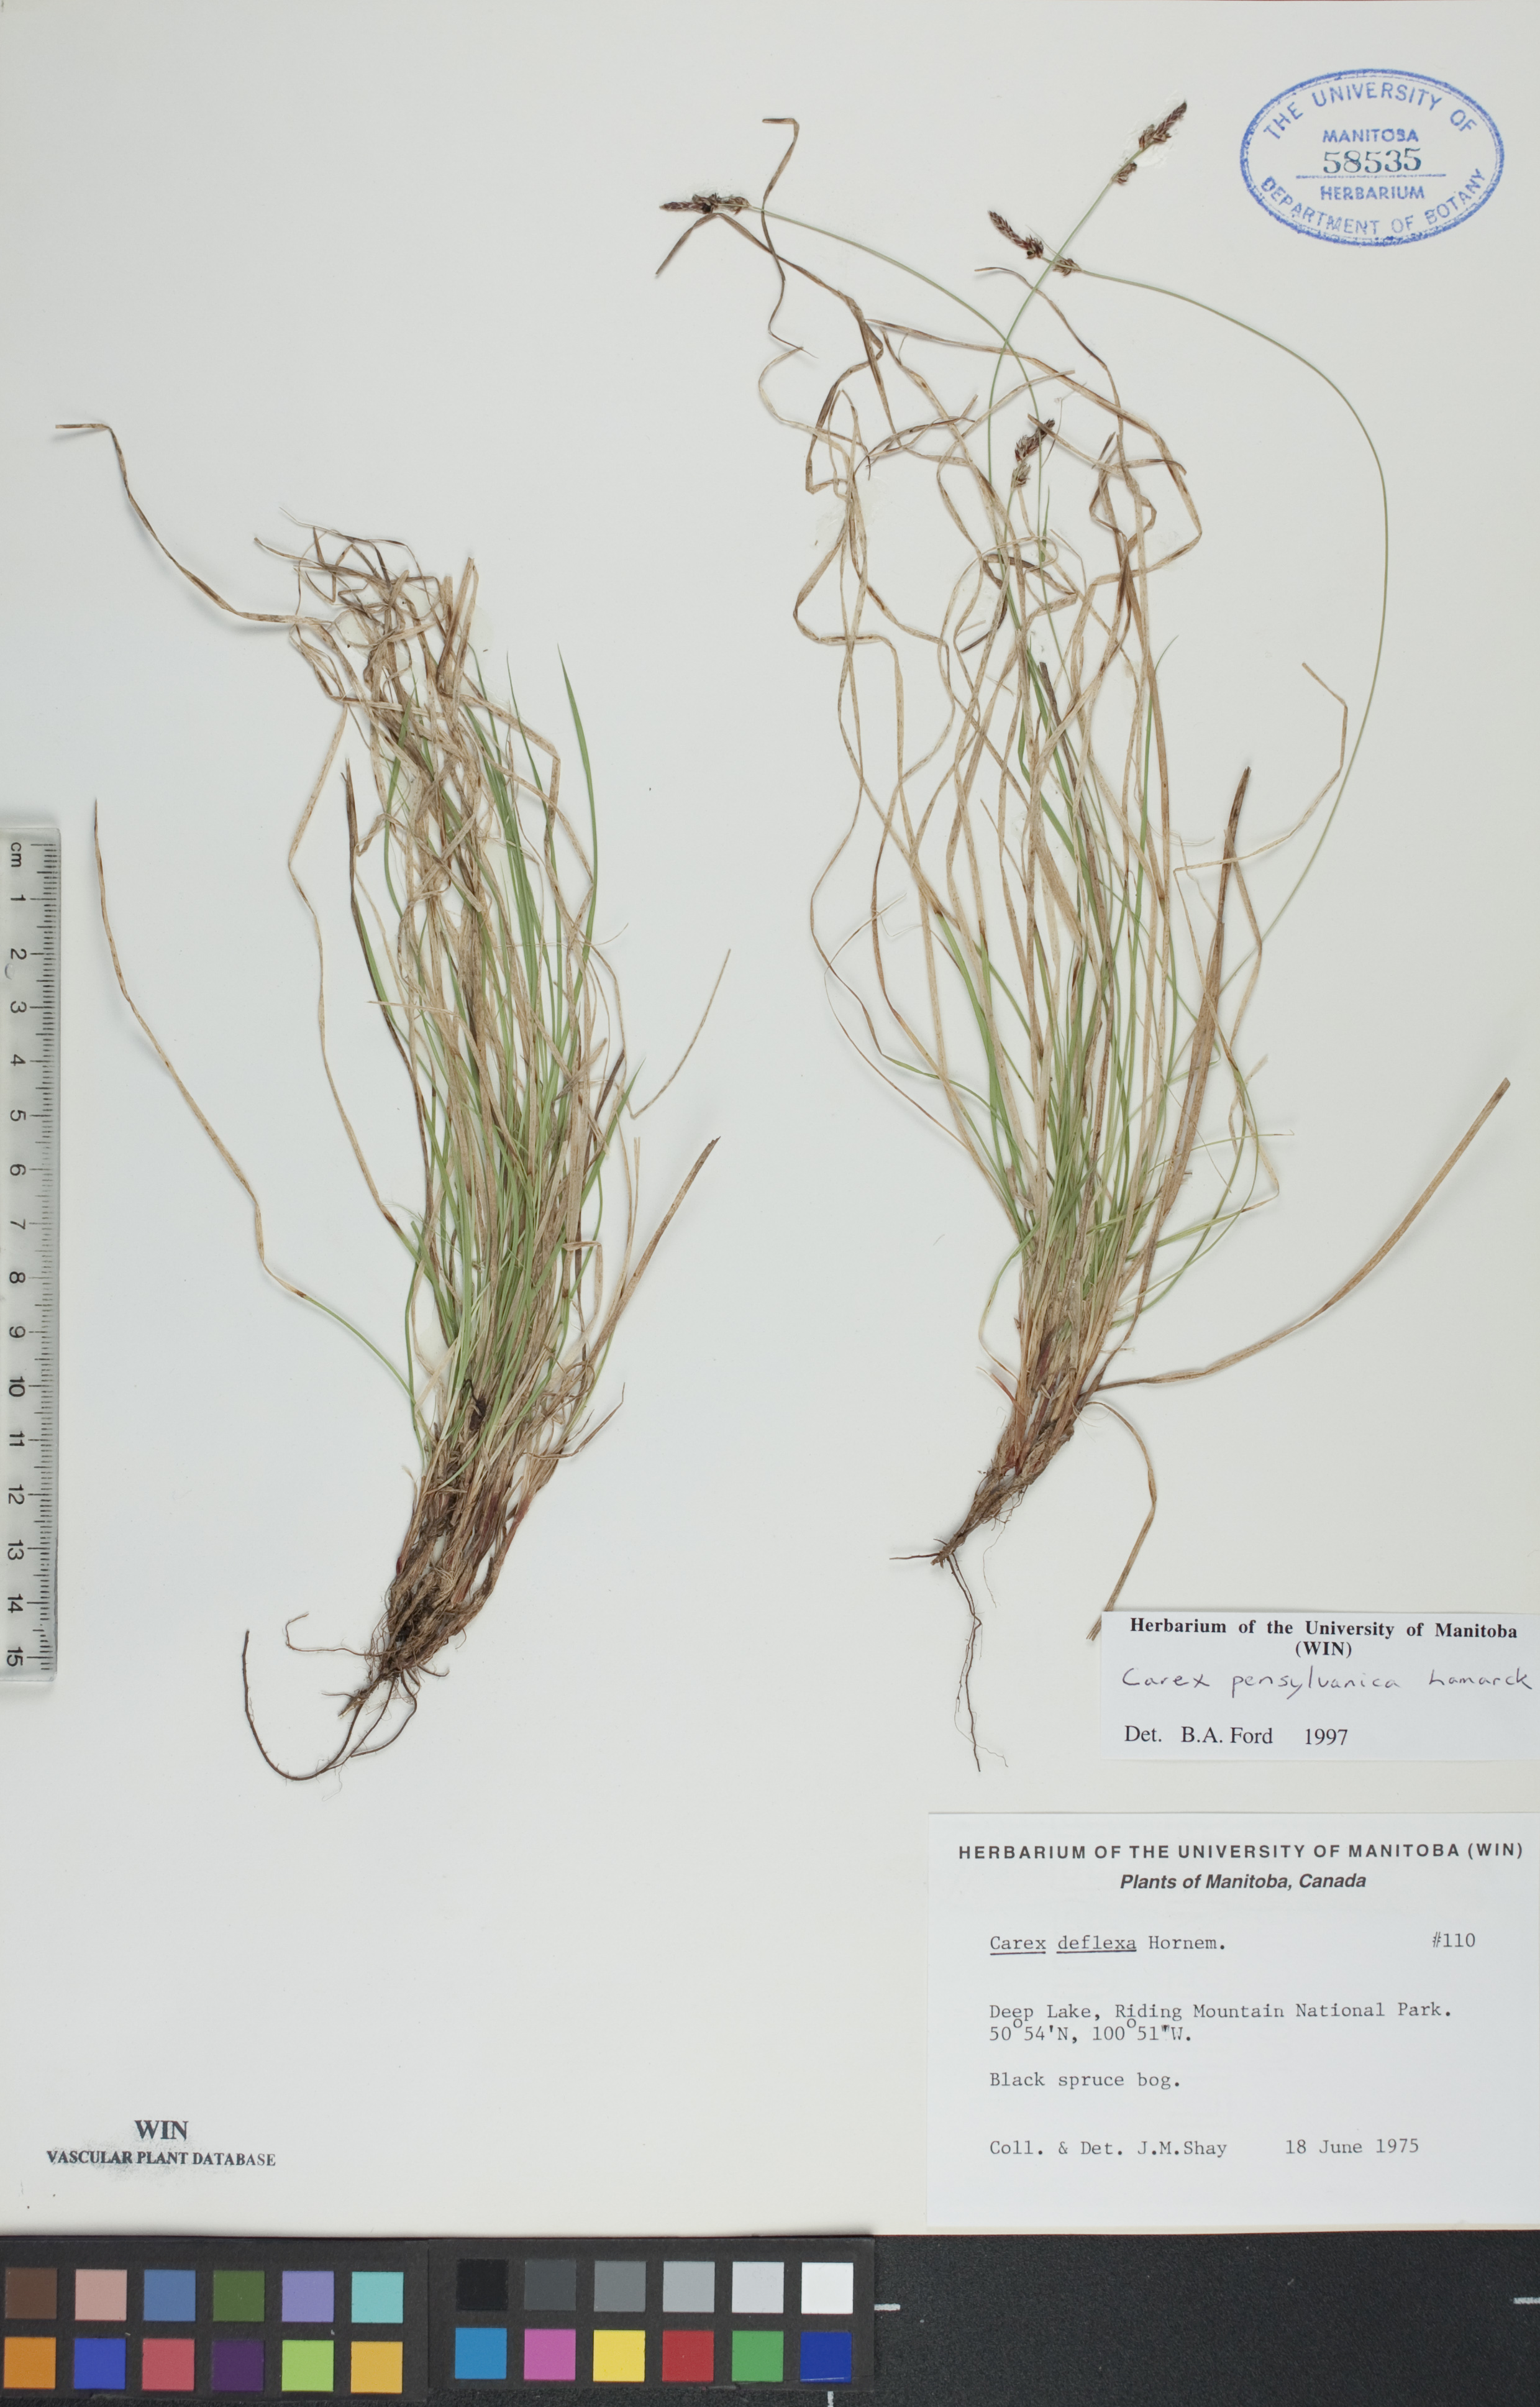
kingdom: Plantae
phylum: Tracheophyta
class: Liliopsida
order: Poales
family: Cyperaceae
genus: Carex
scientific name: Carex pensylvanica
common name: Common oak sedge
